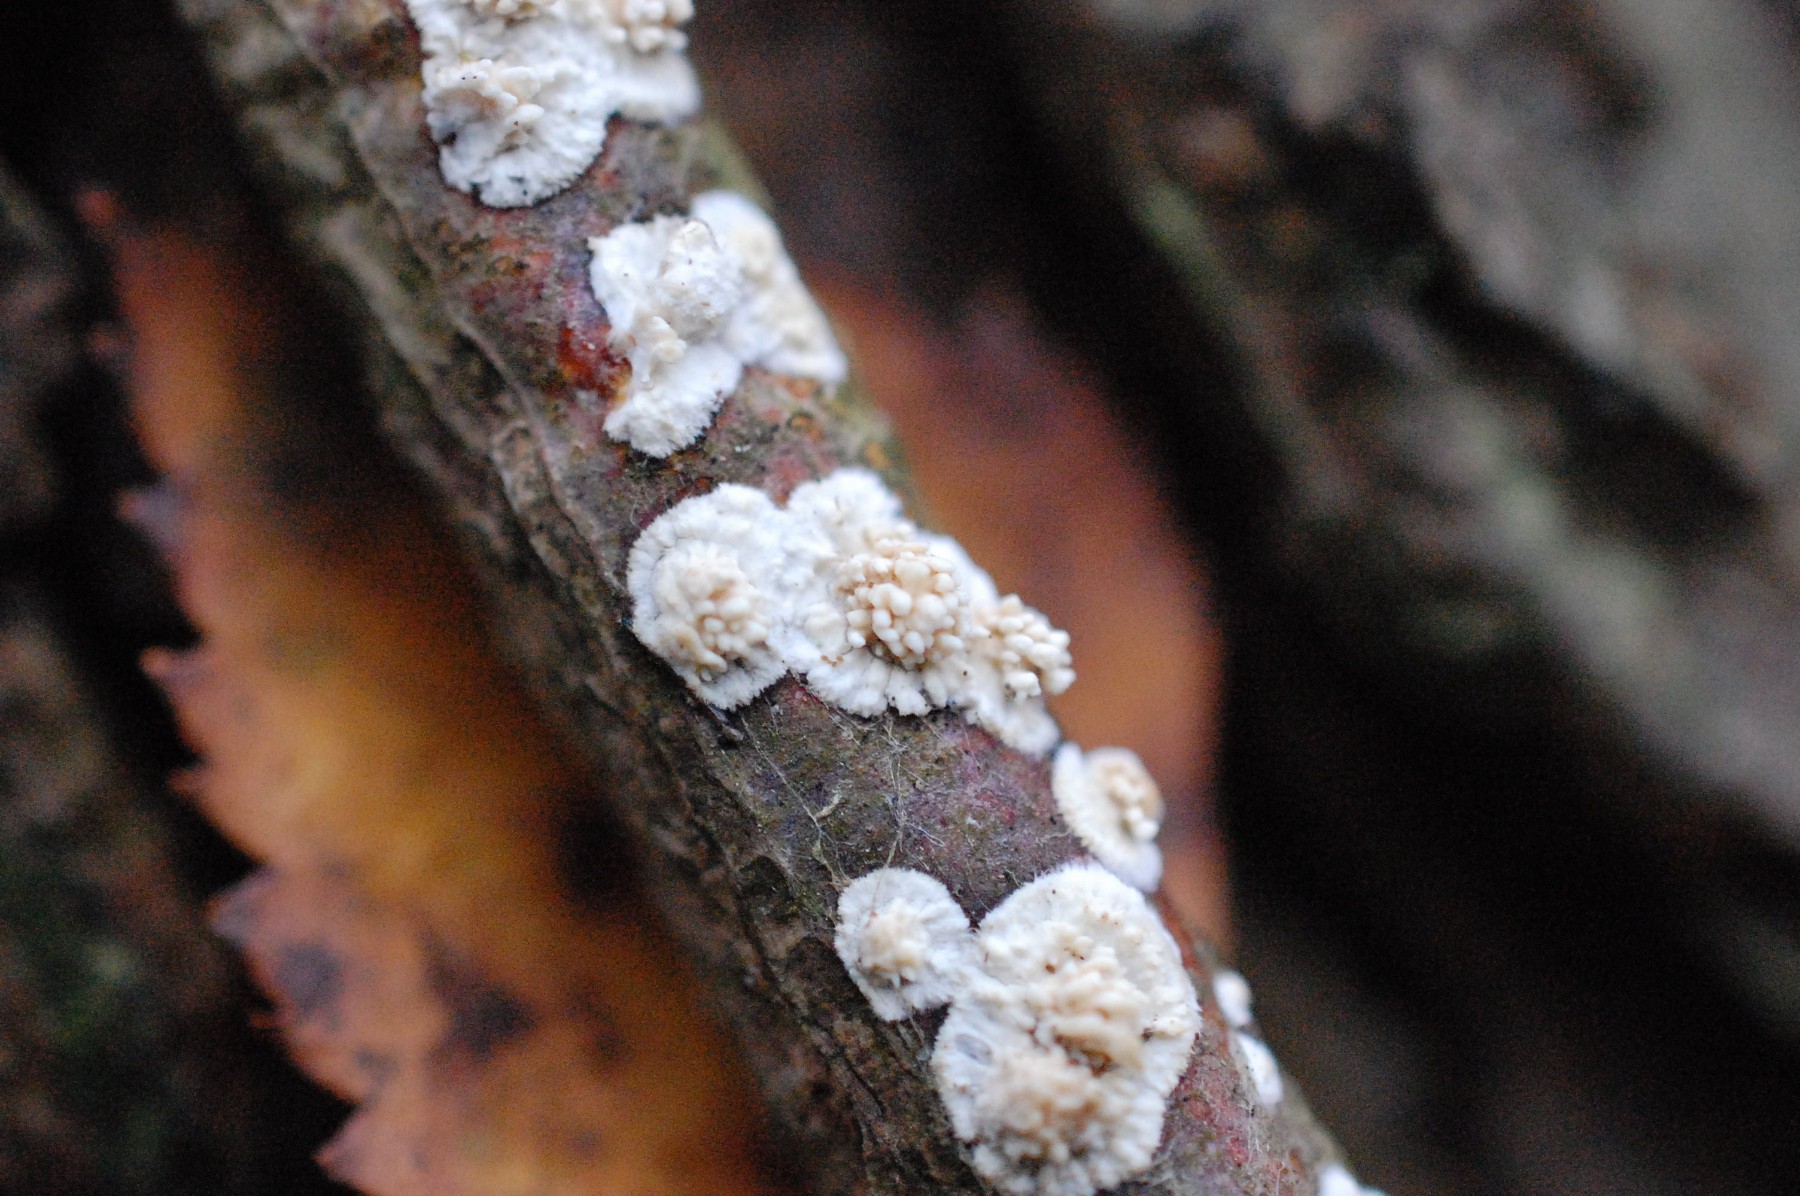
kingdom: Fungi
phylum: Basidiomycota
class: Agaricomycetes
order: Hymenochaetales
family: Schizoporaceae
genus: Xylodon
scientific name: Xylodon radula
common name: grovtandet kalkskind
